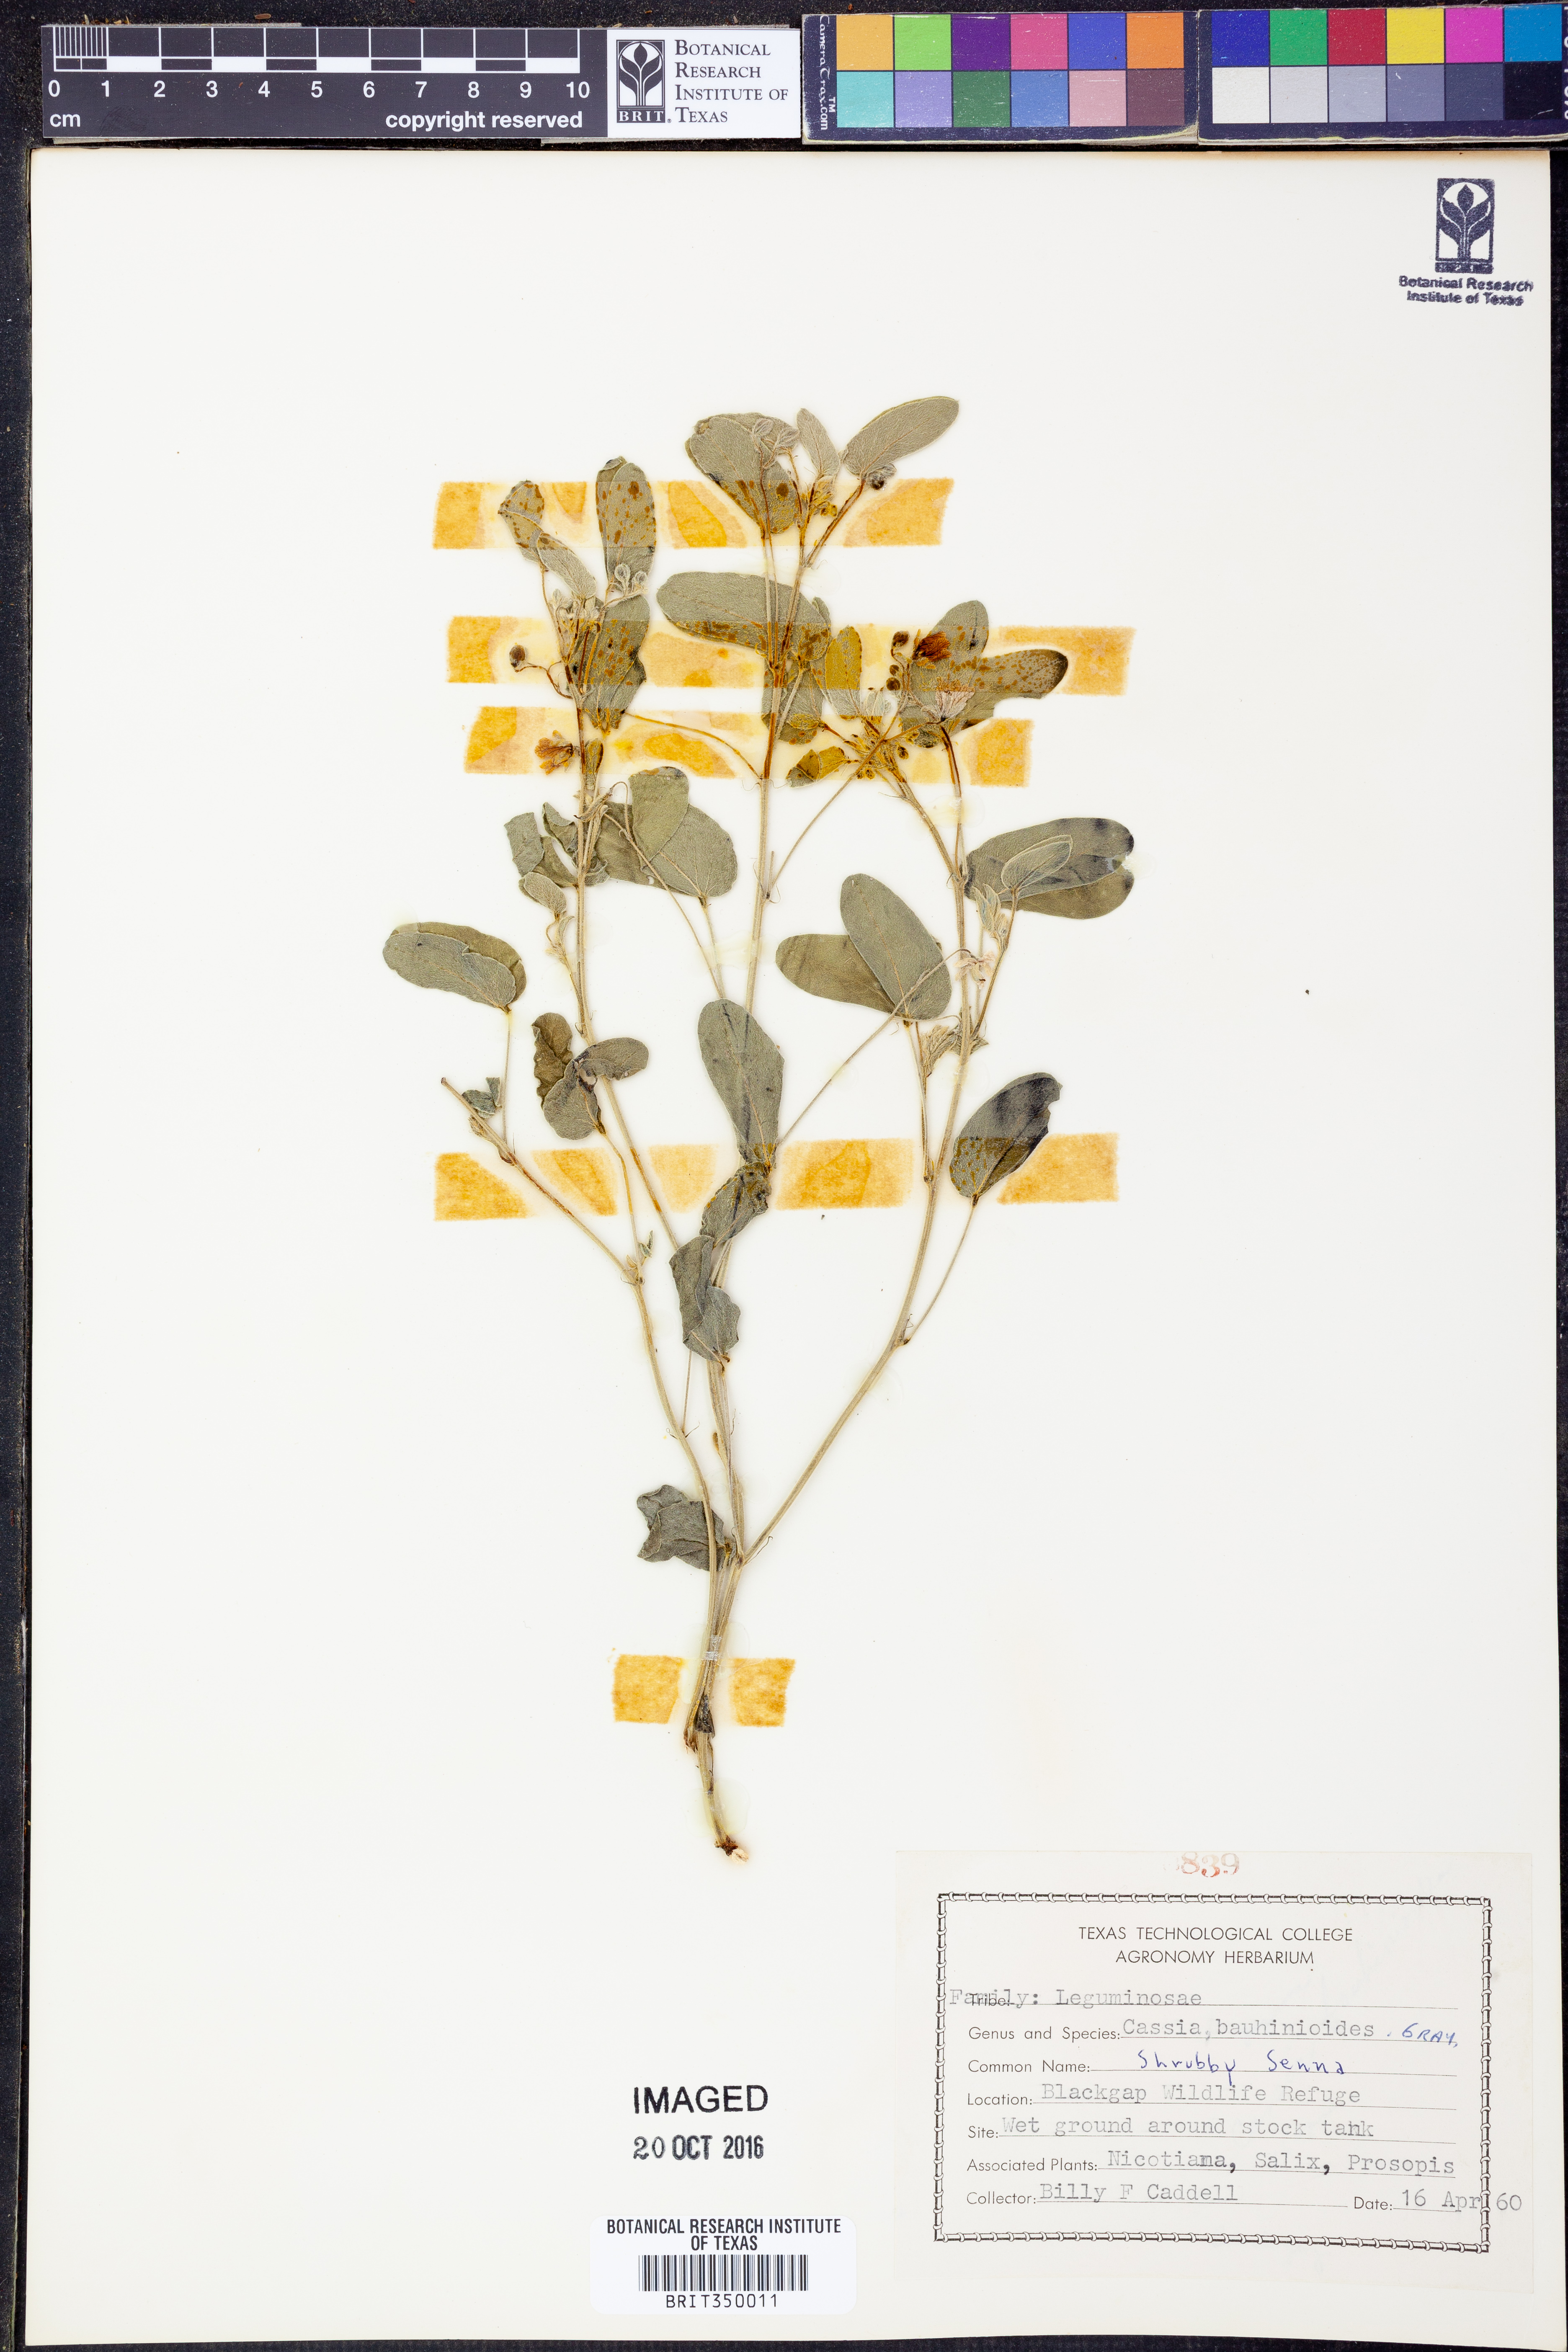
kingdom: Plantae
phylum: Tracheophyta
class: Magnoliopsida
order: Fabales
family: Fabaceae
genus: Senna
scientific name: Senna bauhinioides
